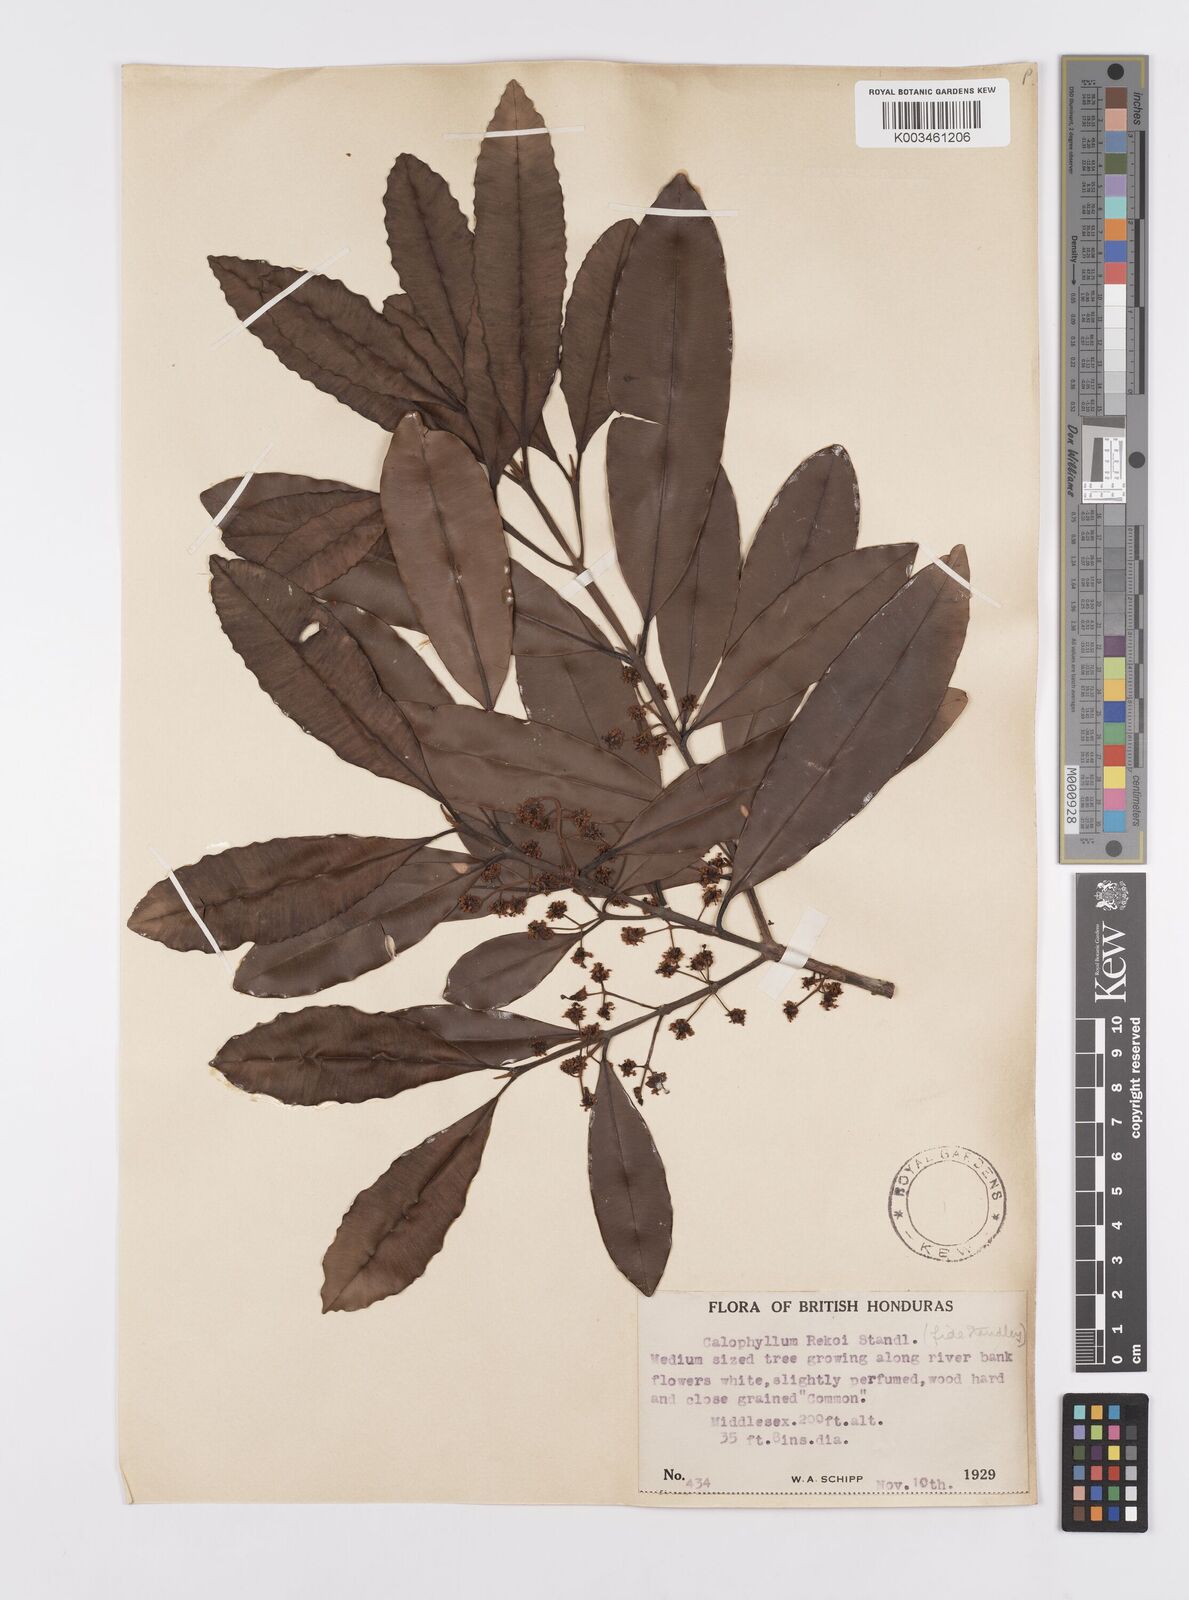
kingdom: Plantae
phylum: Tracheophyta
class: Magnoliopsida
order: Malpighiales
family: Calophyllaceae
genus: Calophyllum
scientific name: Calophyllum brasiliense
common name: Santa maria
